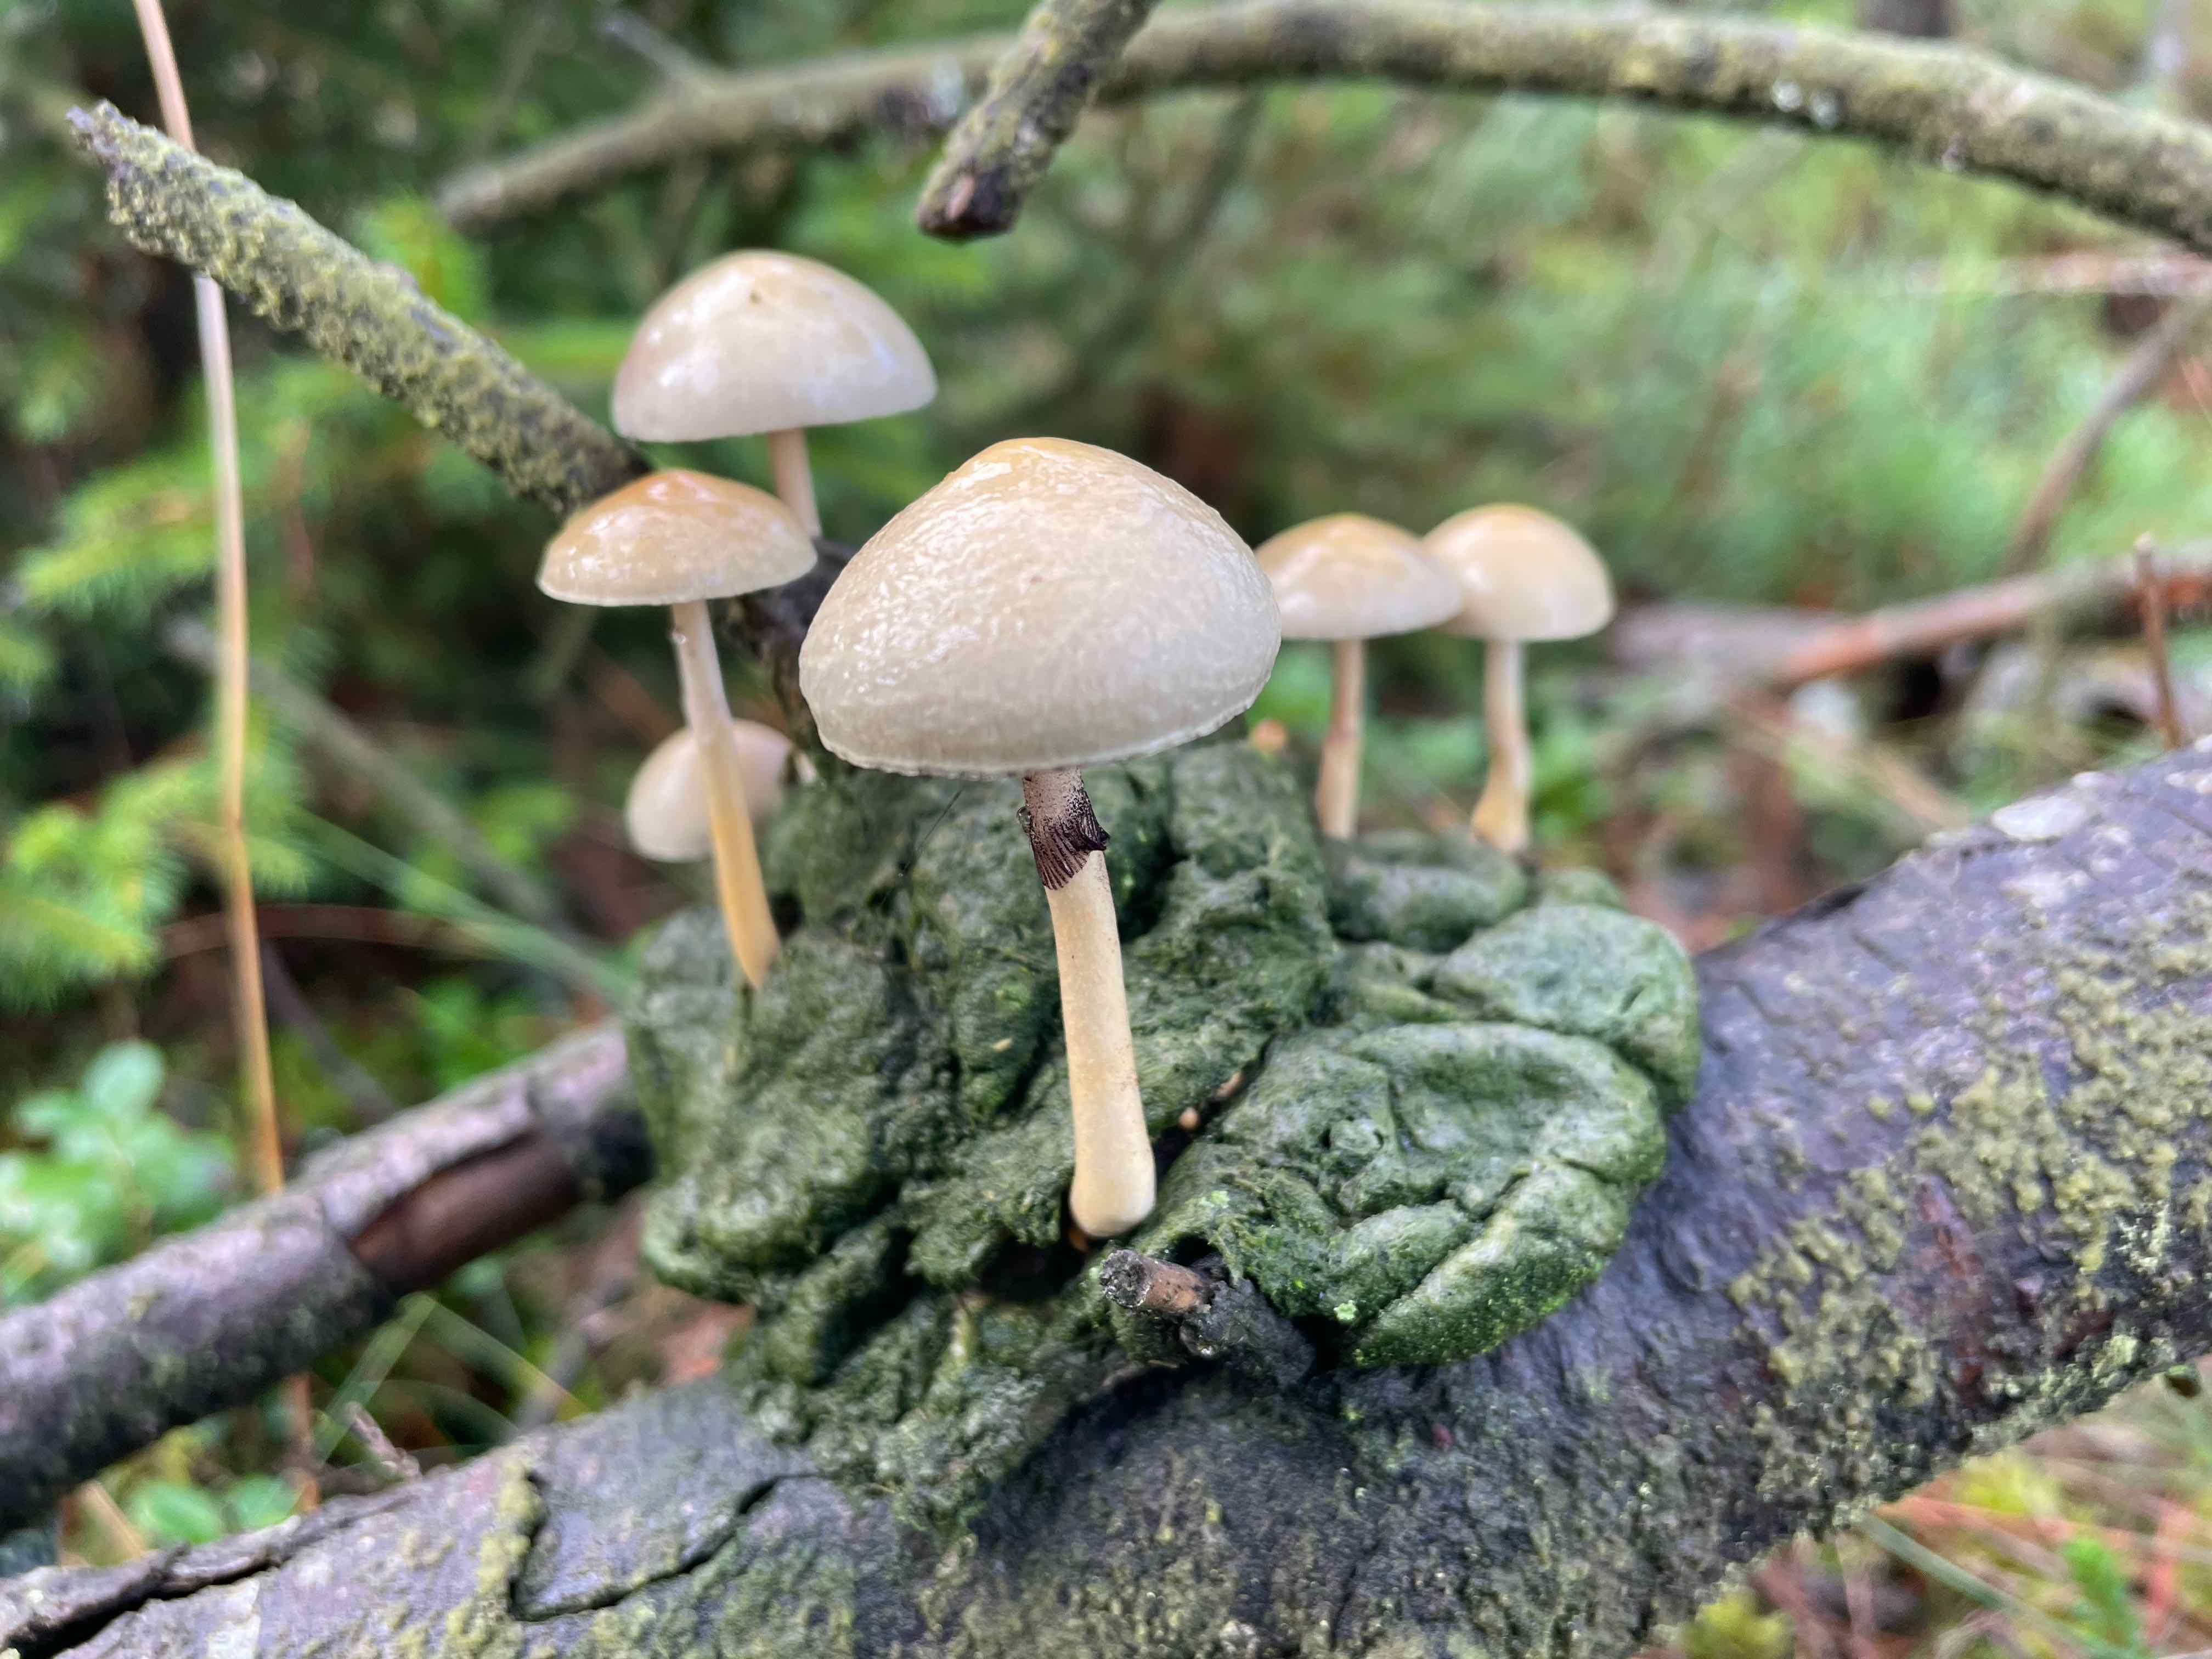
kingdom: Fungi
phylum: Basidiomycota
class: Agaricomycetes
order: Agaricales
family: Strophariaceae
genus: Protostropharia
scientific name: Protostropharia semiglobata
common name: halvkugleformet bredblad
